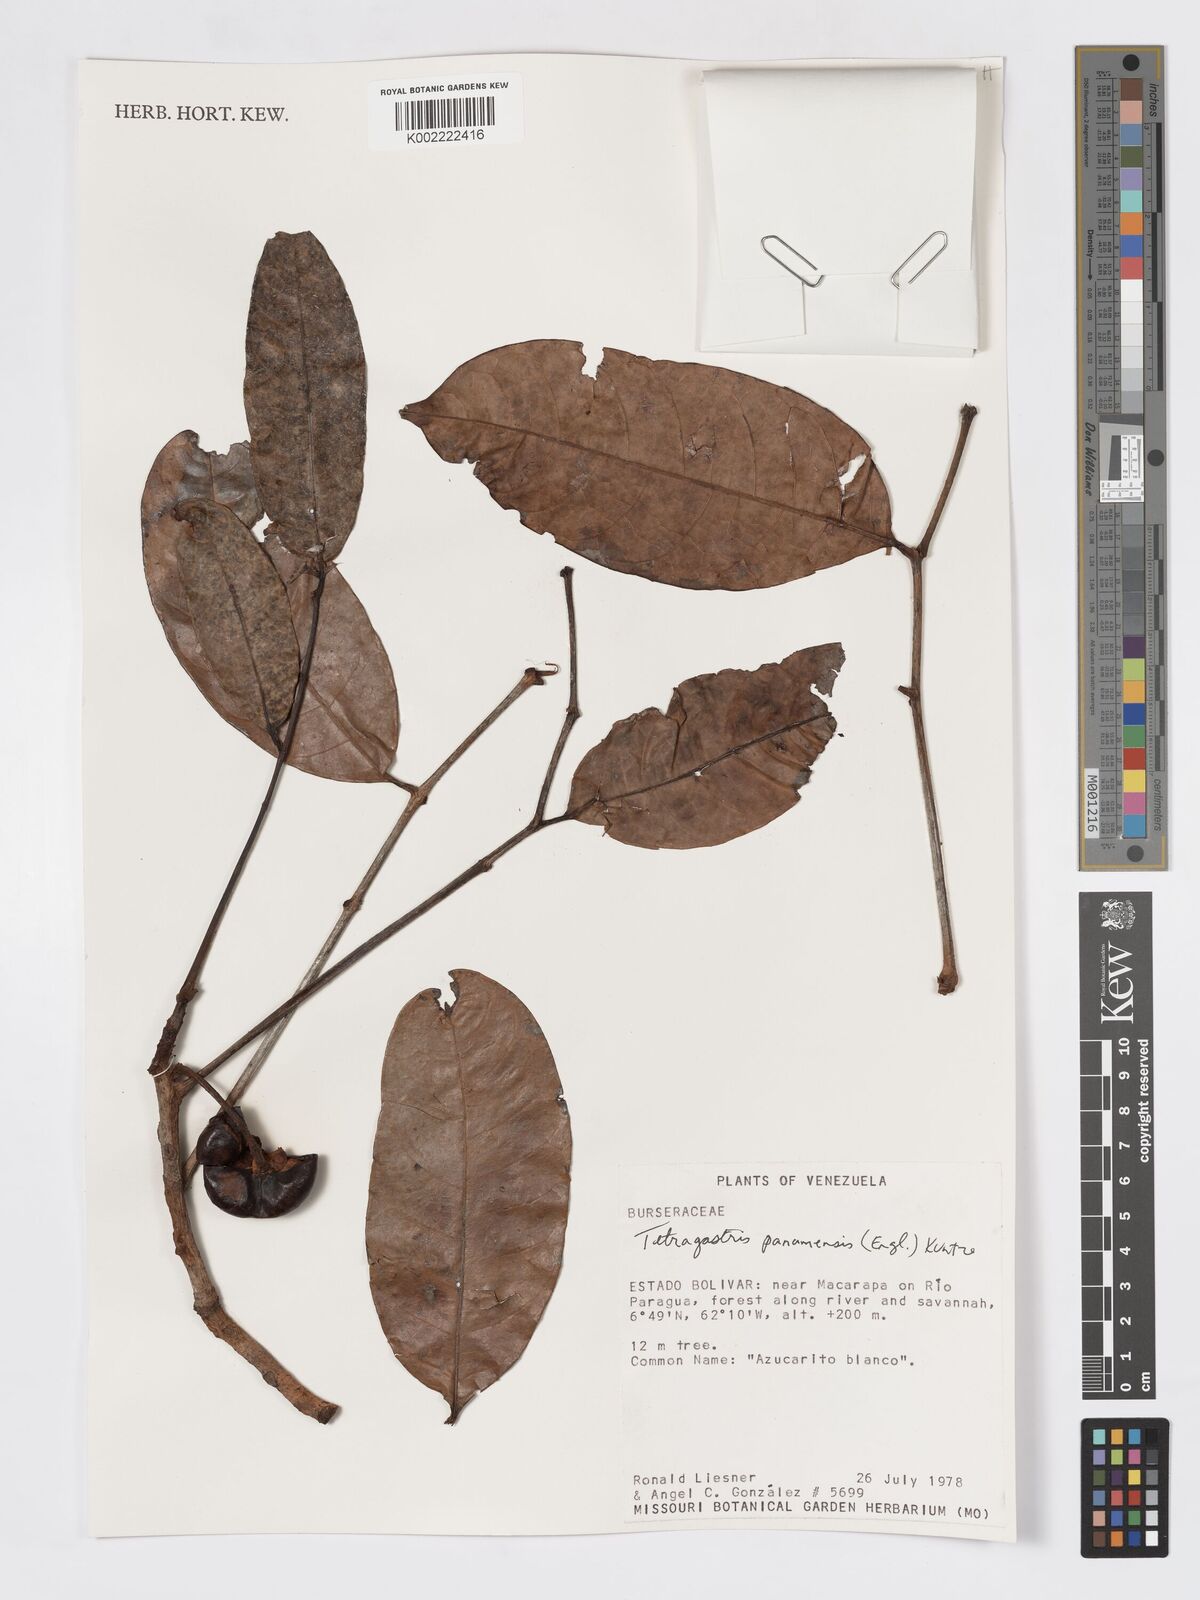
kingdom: Plantae
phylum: Tracheophyta
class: Magnoliopsida
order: Sapindales
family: Burseraceae
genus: Tetragastris
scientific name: Tetragastris panamensis
